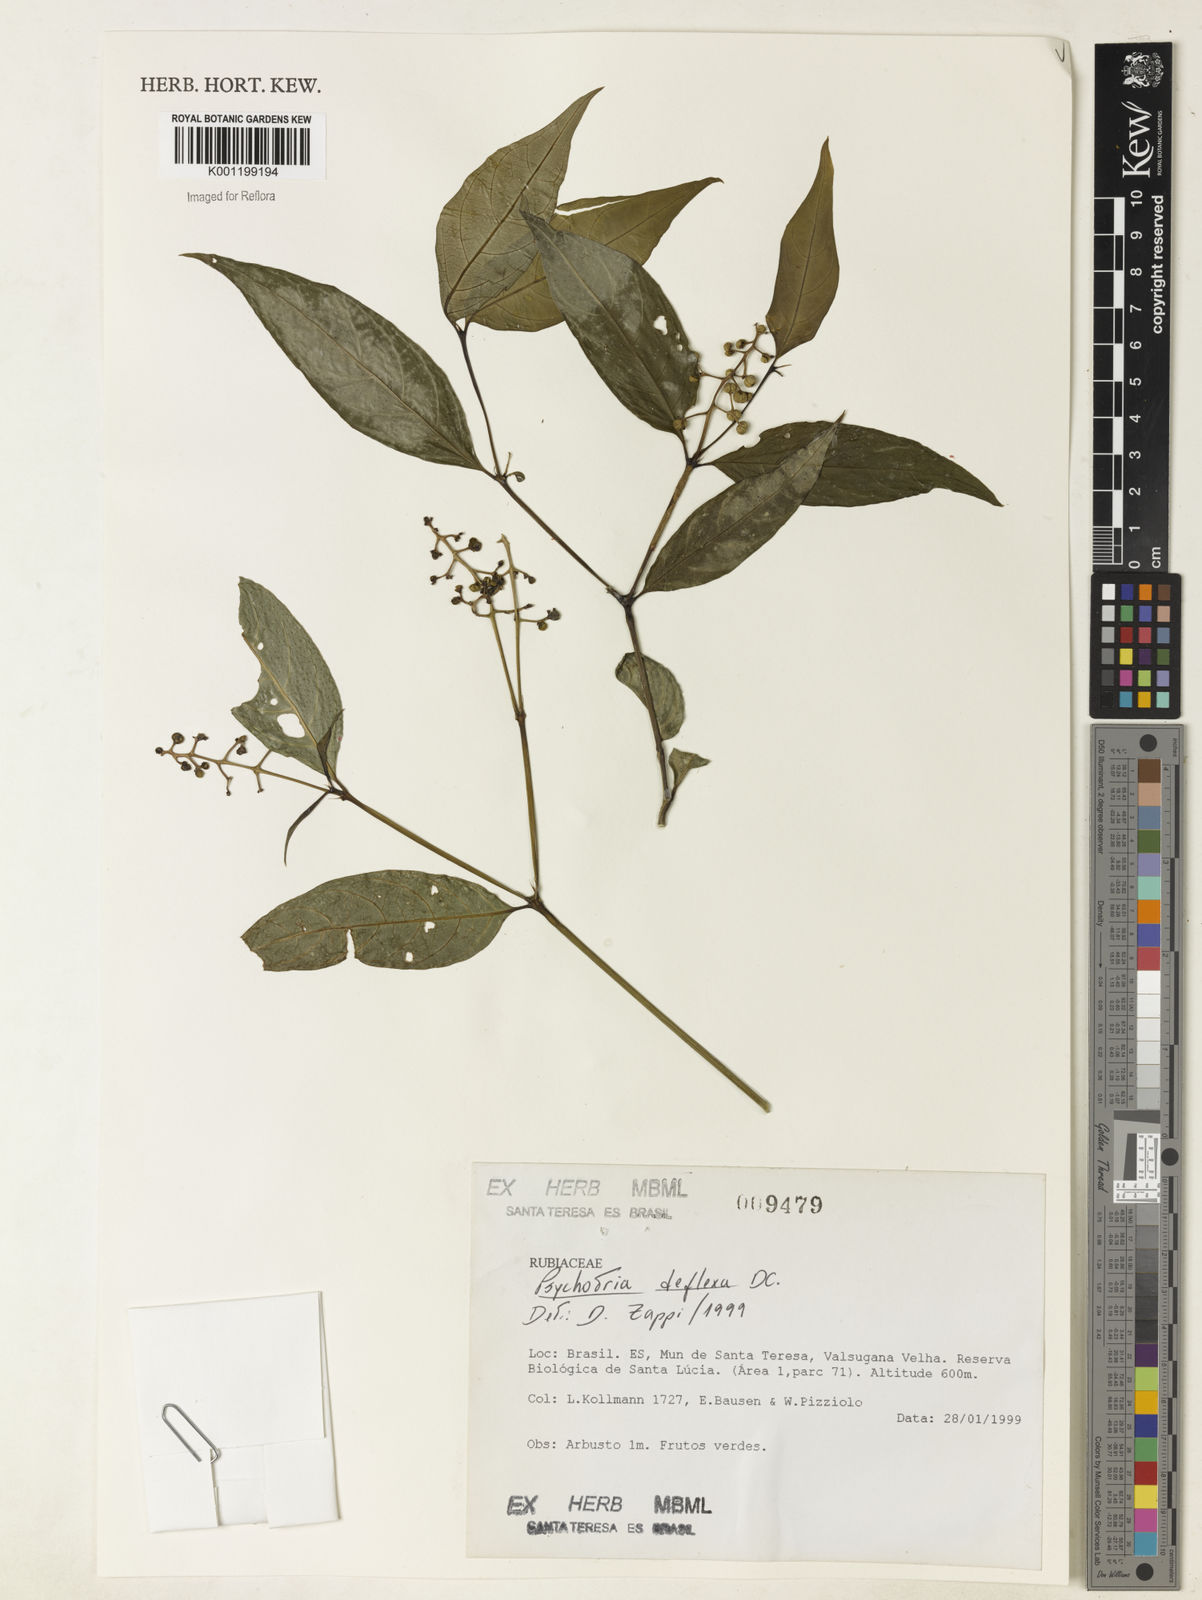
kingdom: Plantae
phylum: Tracheophyta
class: Magnoliopsida
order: Gentianales
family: Rubiaceae
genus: Palicourea
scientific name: Palicourea deflexa
